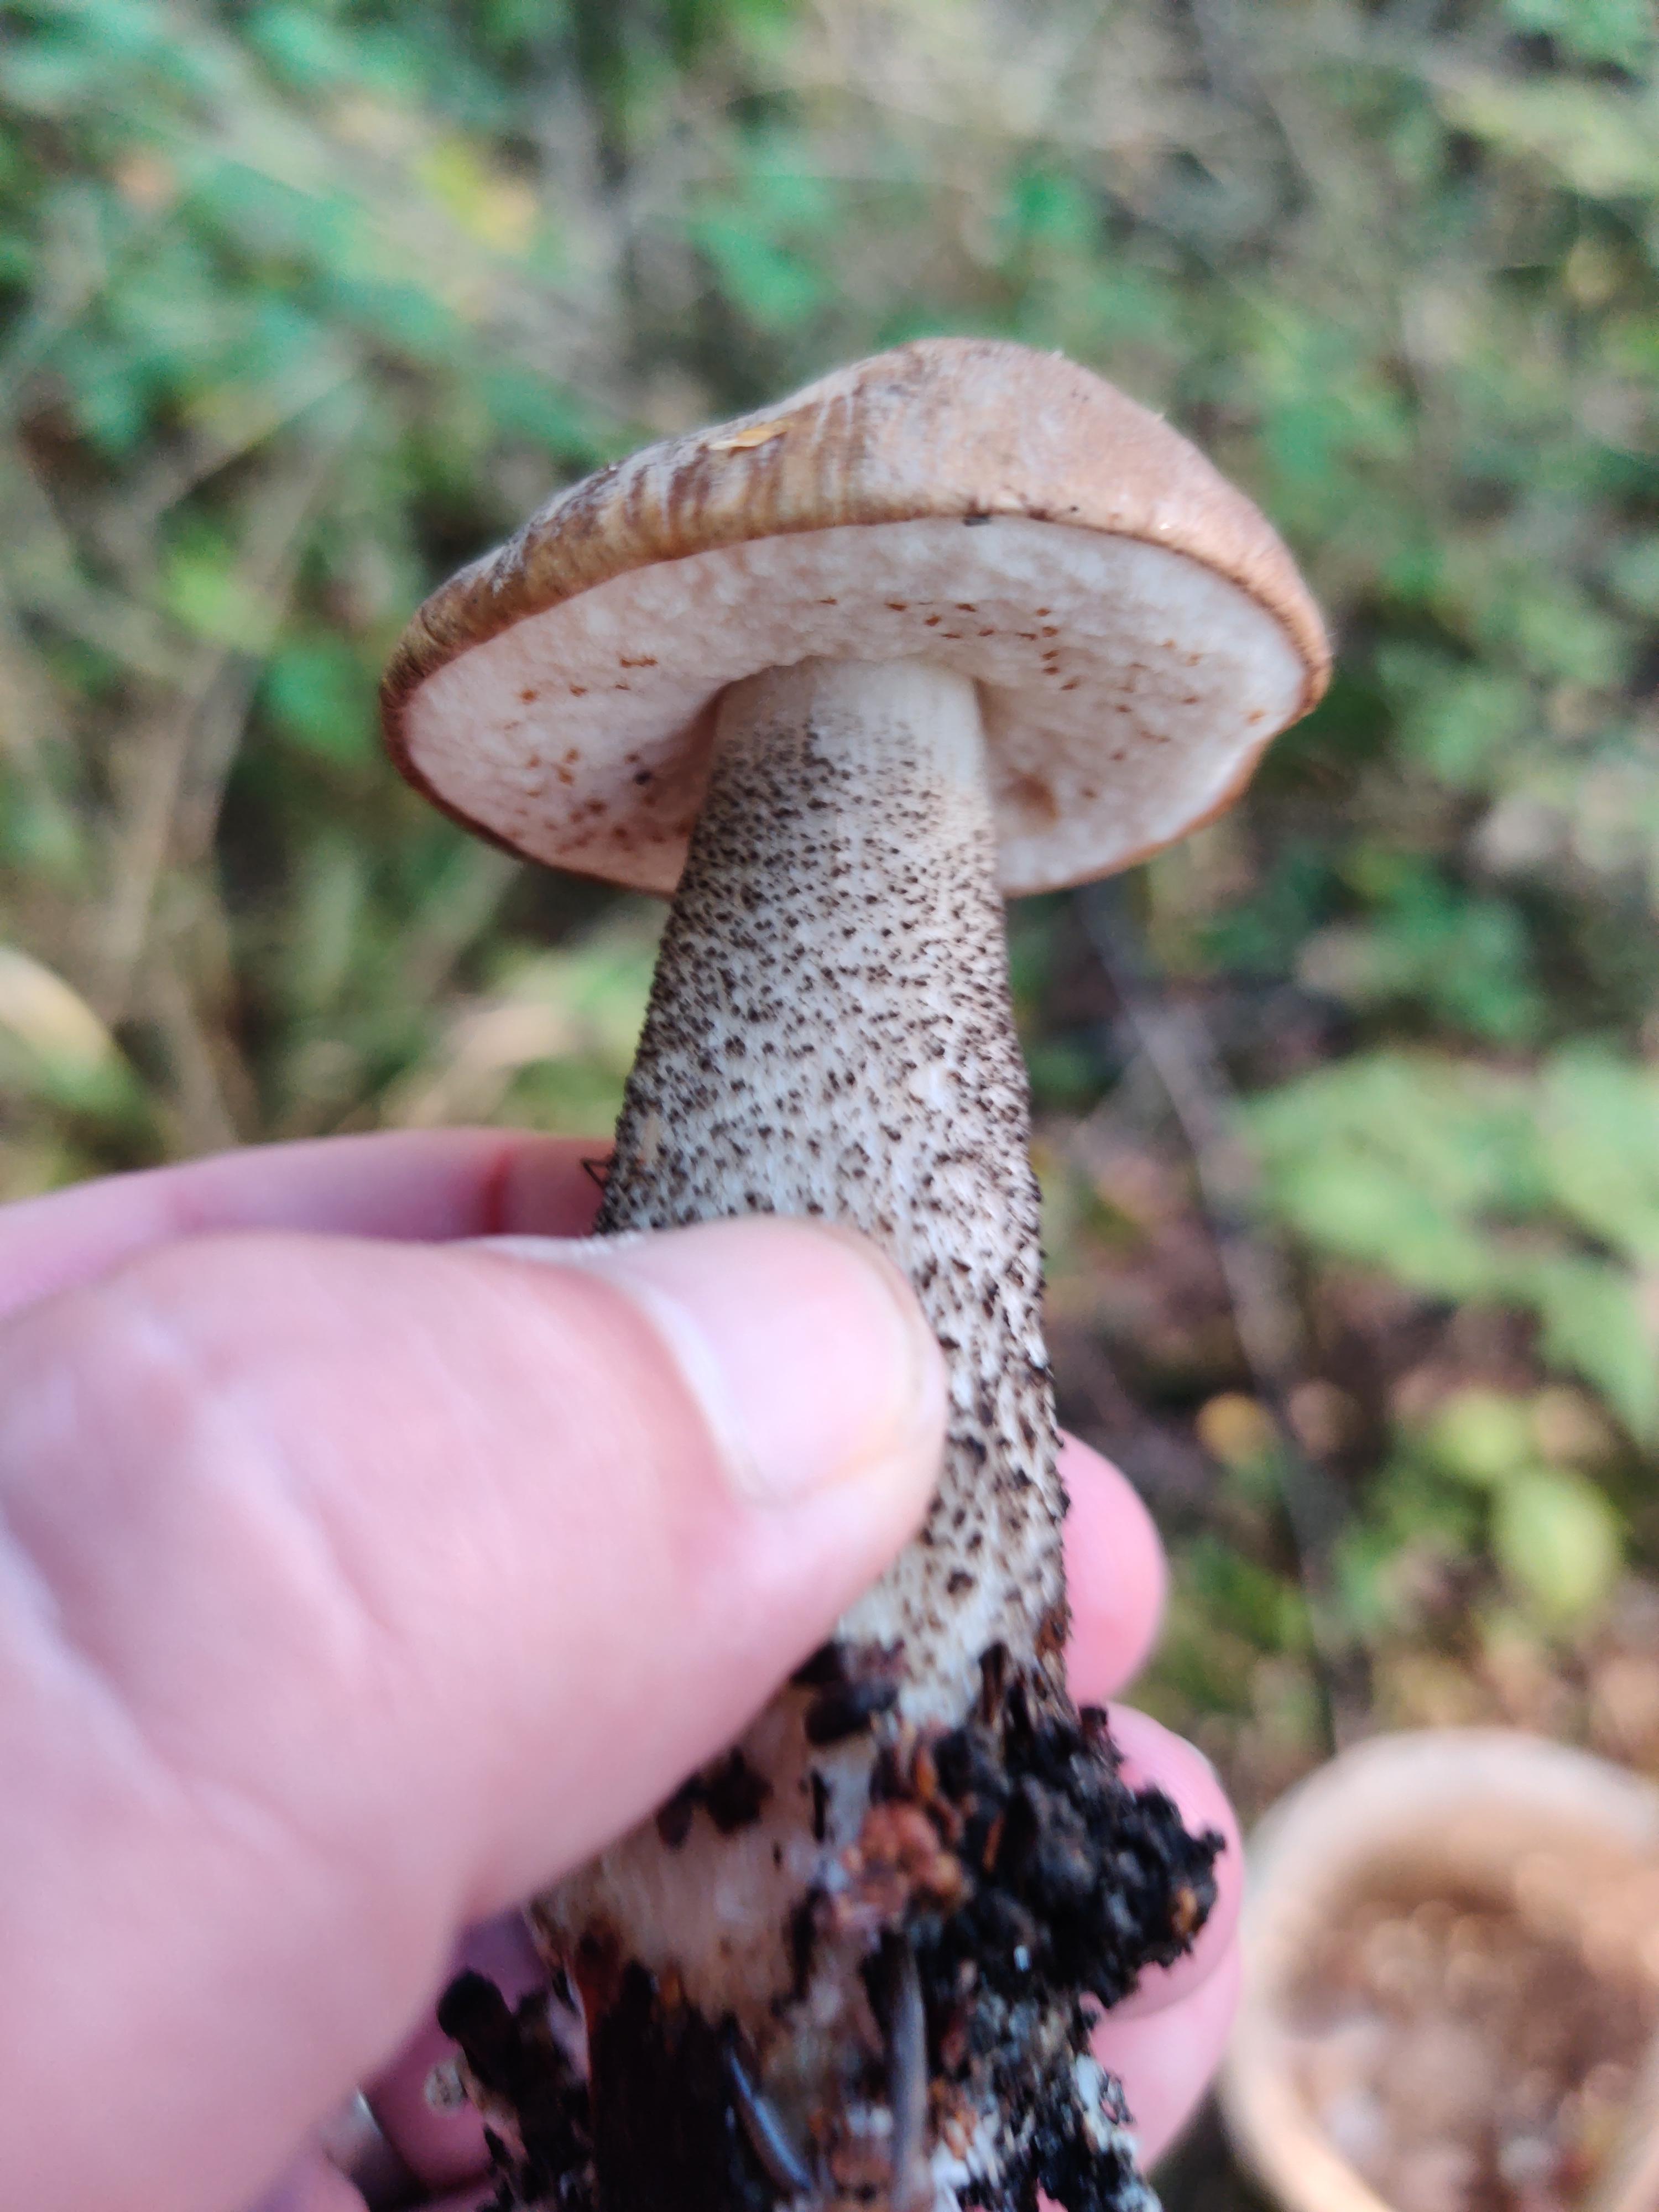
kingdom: Fungi
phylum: Basidiomycota
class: Agaricomycetes
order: Boletales
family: Boletaceae
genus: Leccinum
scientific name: Leccinum
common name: skælrørhat
